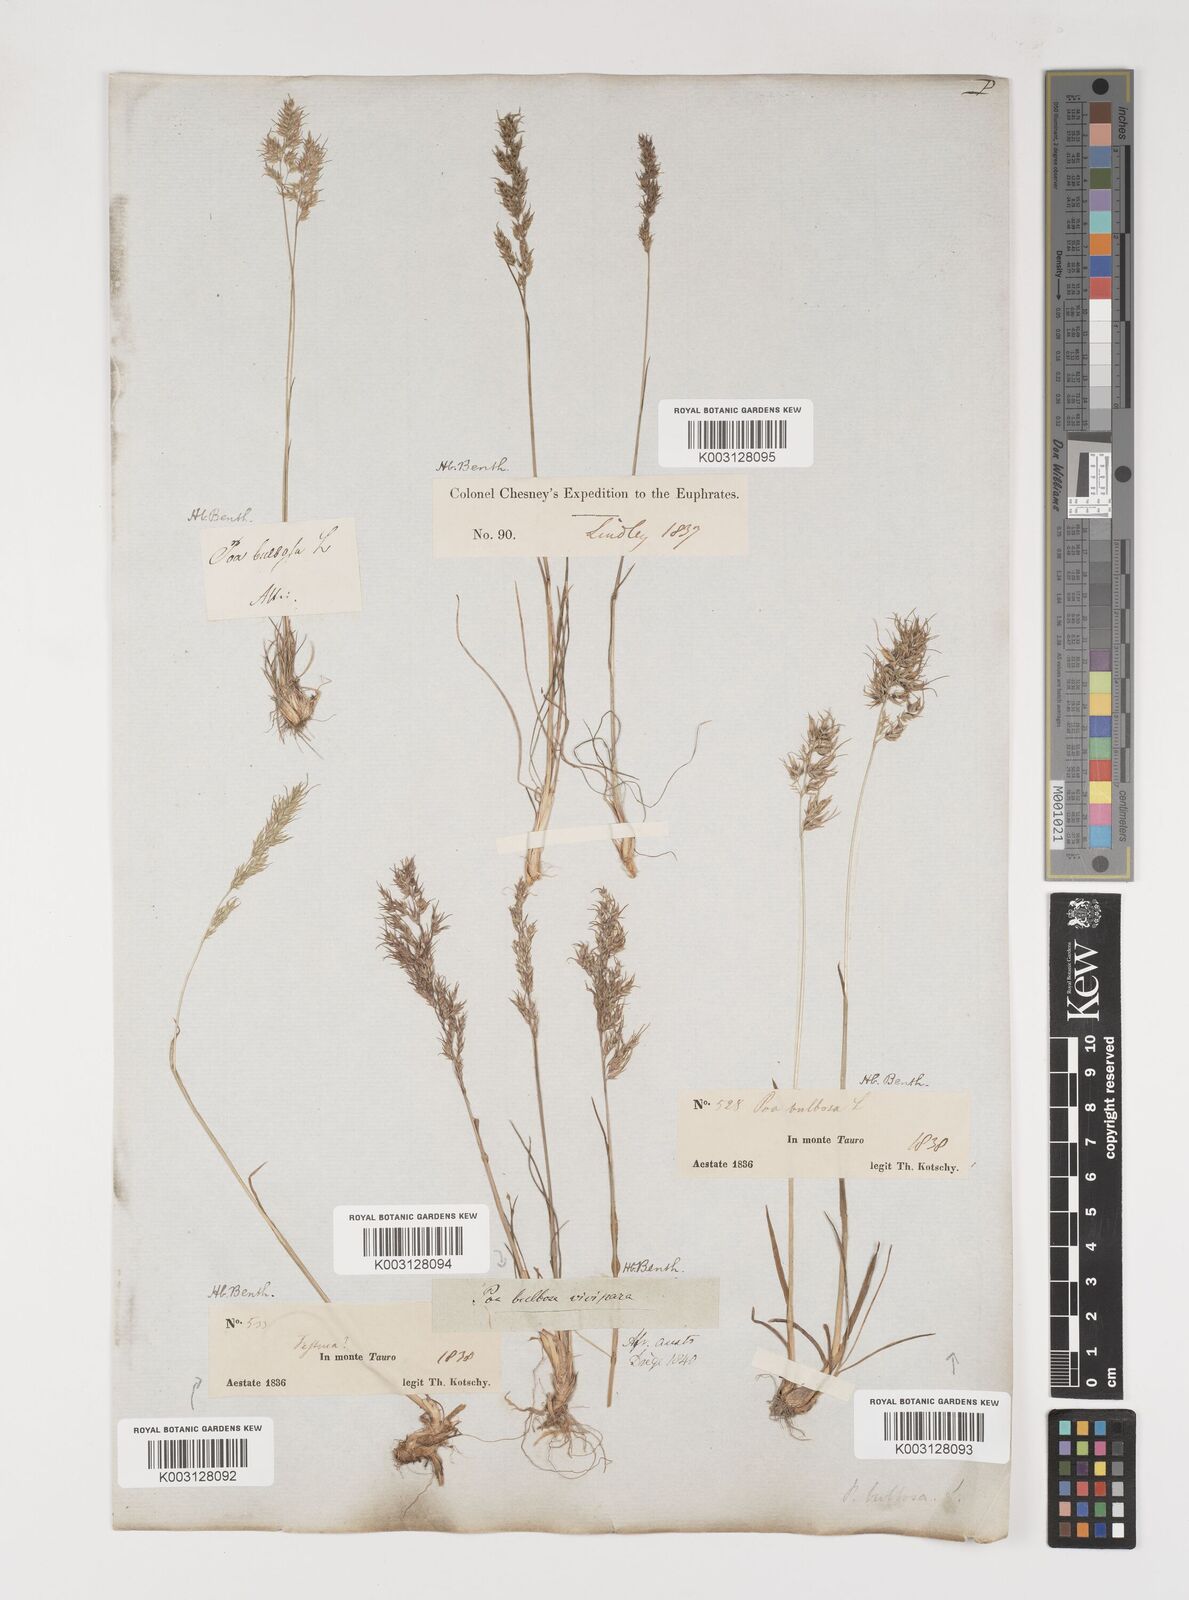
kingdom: Plantae
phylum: Tracheophyta
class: Liliopsida
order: Poales
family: Poaceae
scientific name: Poaceae
